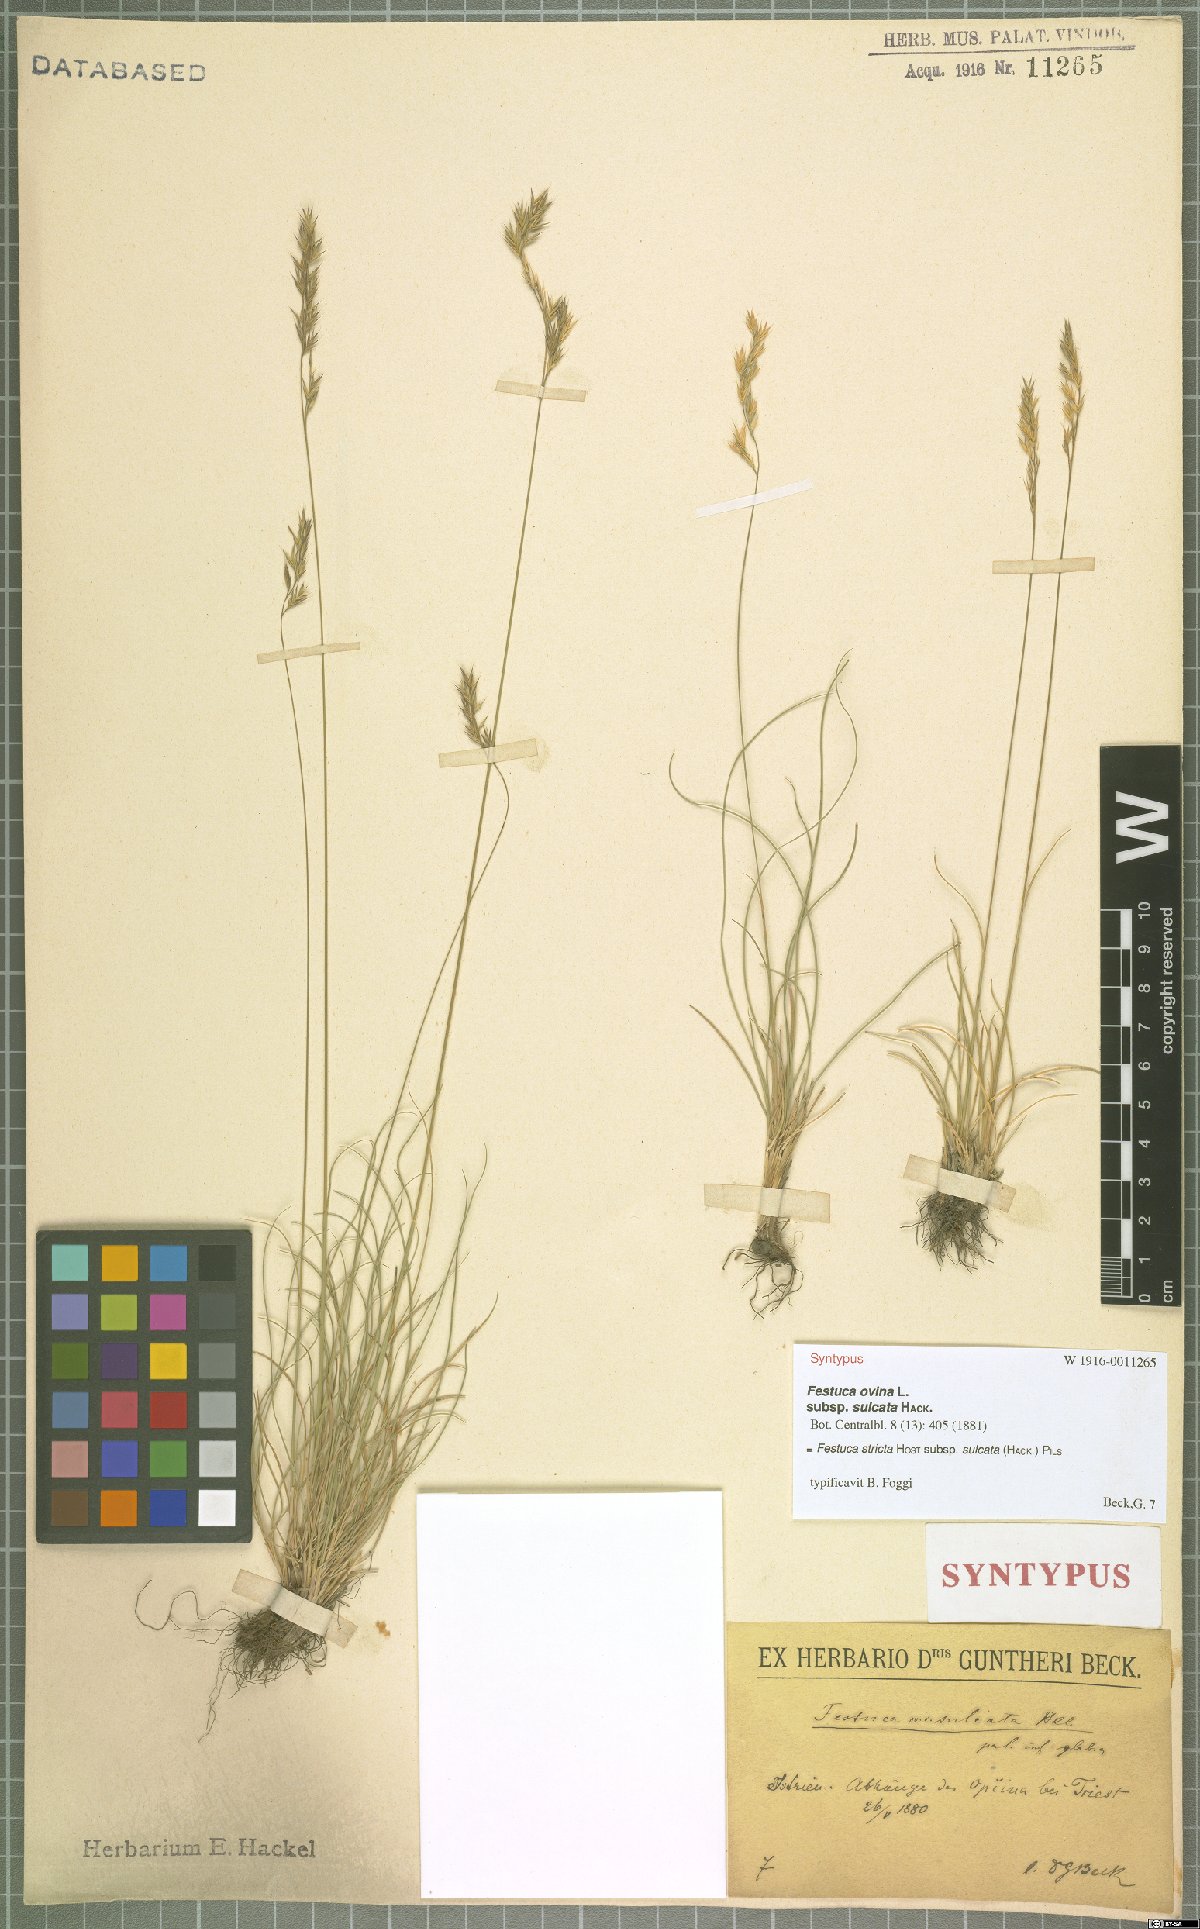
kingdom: Plantae
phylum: Tracheophyta
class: Liliopsida
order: Poales
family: Poaceae
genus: Festuca
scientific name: Festuca rupicola
